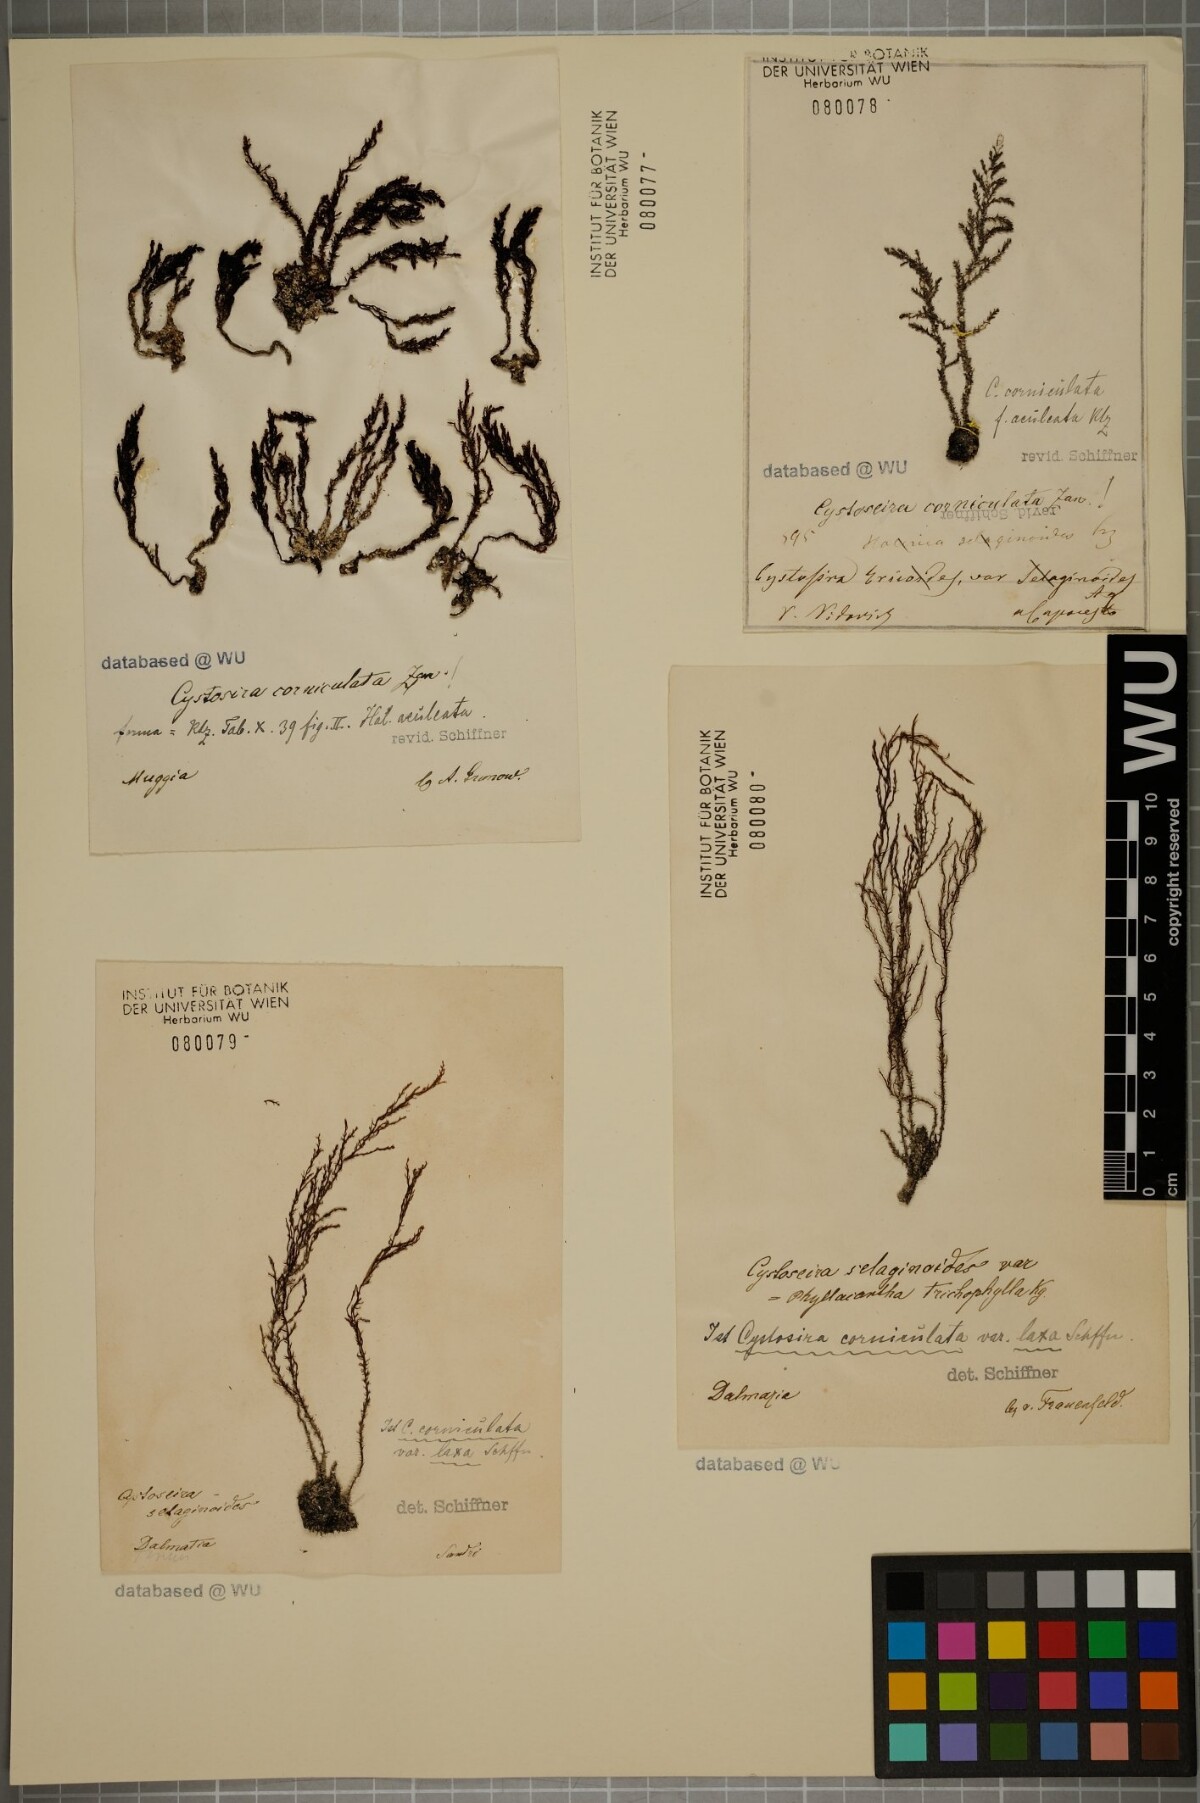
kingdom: Chromista
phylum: Ochrophyta
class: Phaeophyceae
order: Fucales
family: Sargassaceae
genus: Cystoseira
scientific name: Cystoseira corniculata
